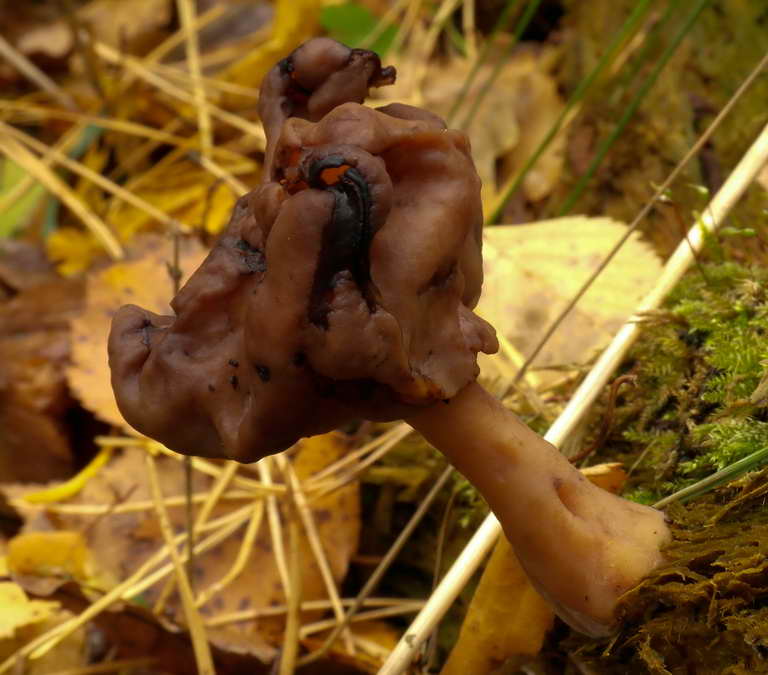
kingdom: Fungi
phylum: Ascomycota
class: Pezizomycetes
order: Pezizales
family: Discinaceae
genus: Gyromitra
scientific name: Gyromitra infula
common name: bispehue-stenmorkel
